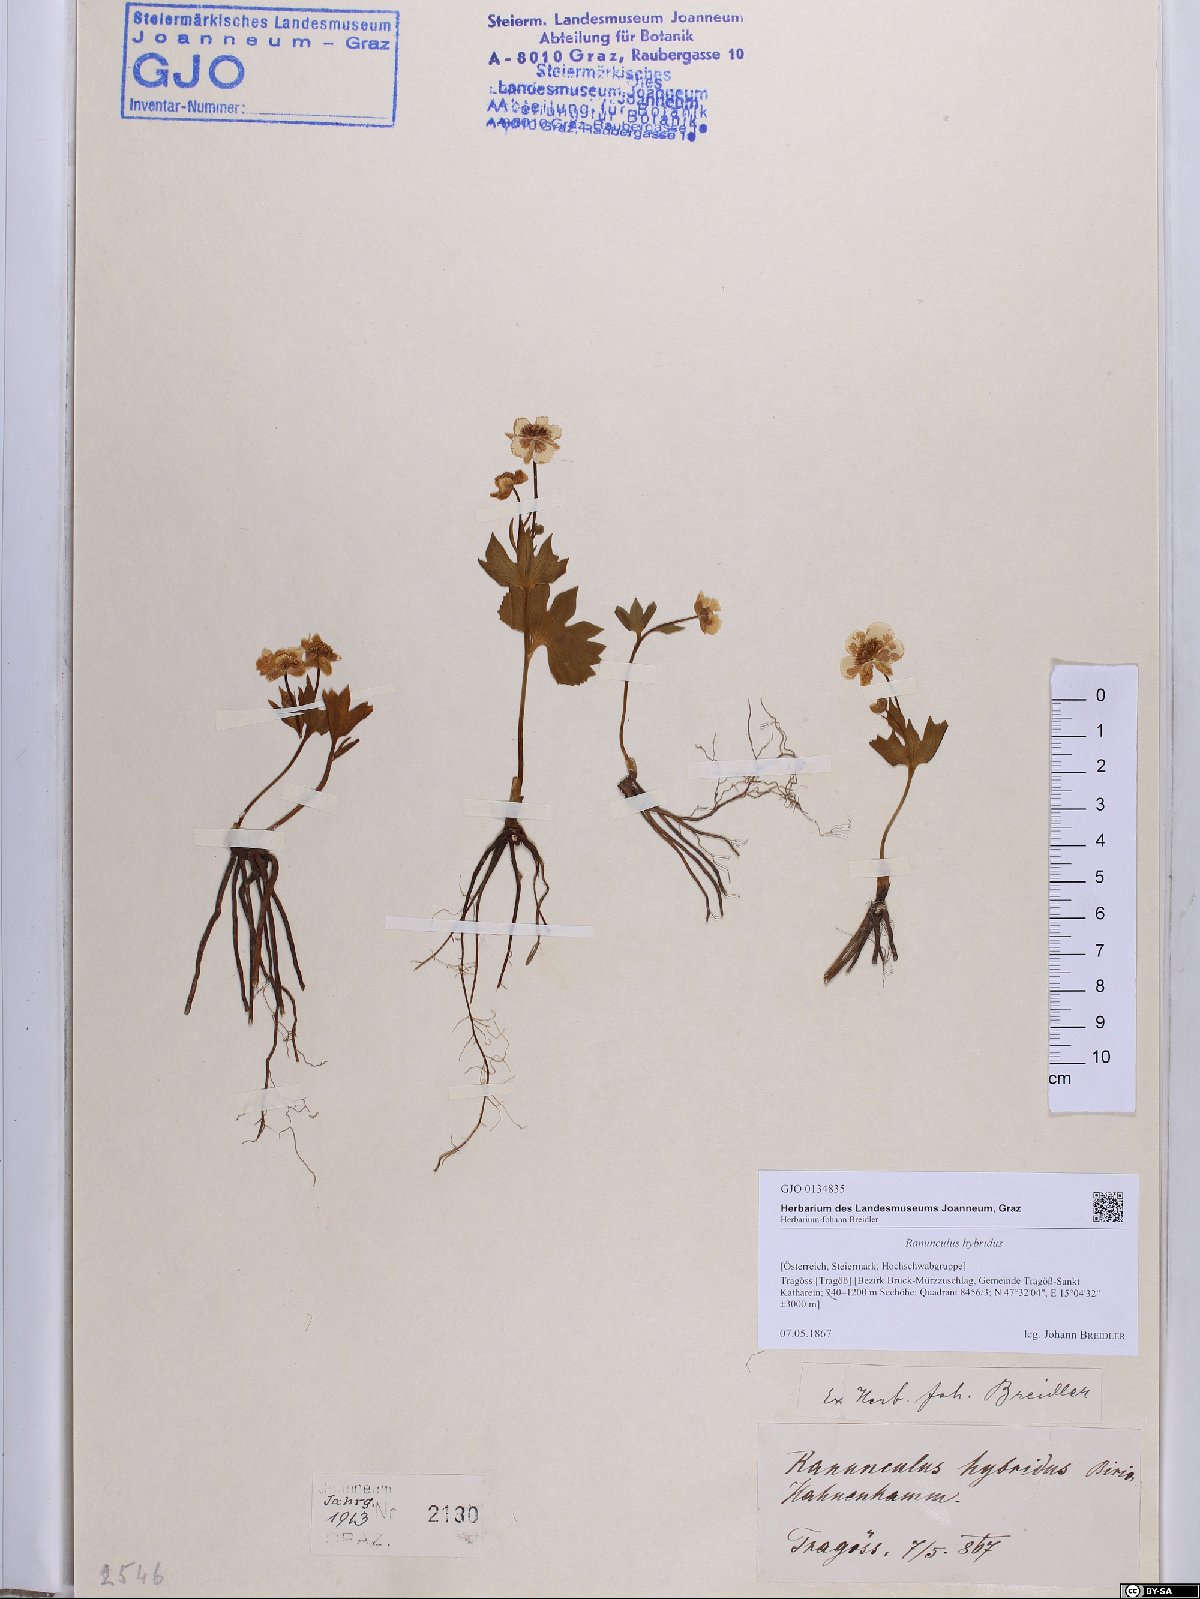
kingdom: Plantae
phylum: Tracheophyta
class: Magnoliopsida
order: Ranunculales
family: Ranunculaceae
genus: Ranunculus
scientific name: Ranunculus hybridus
